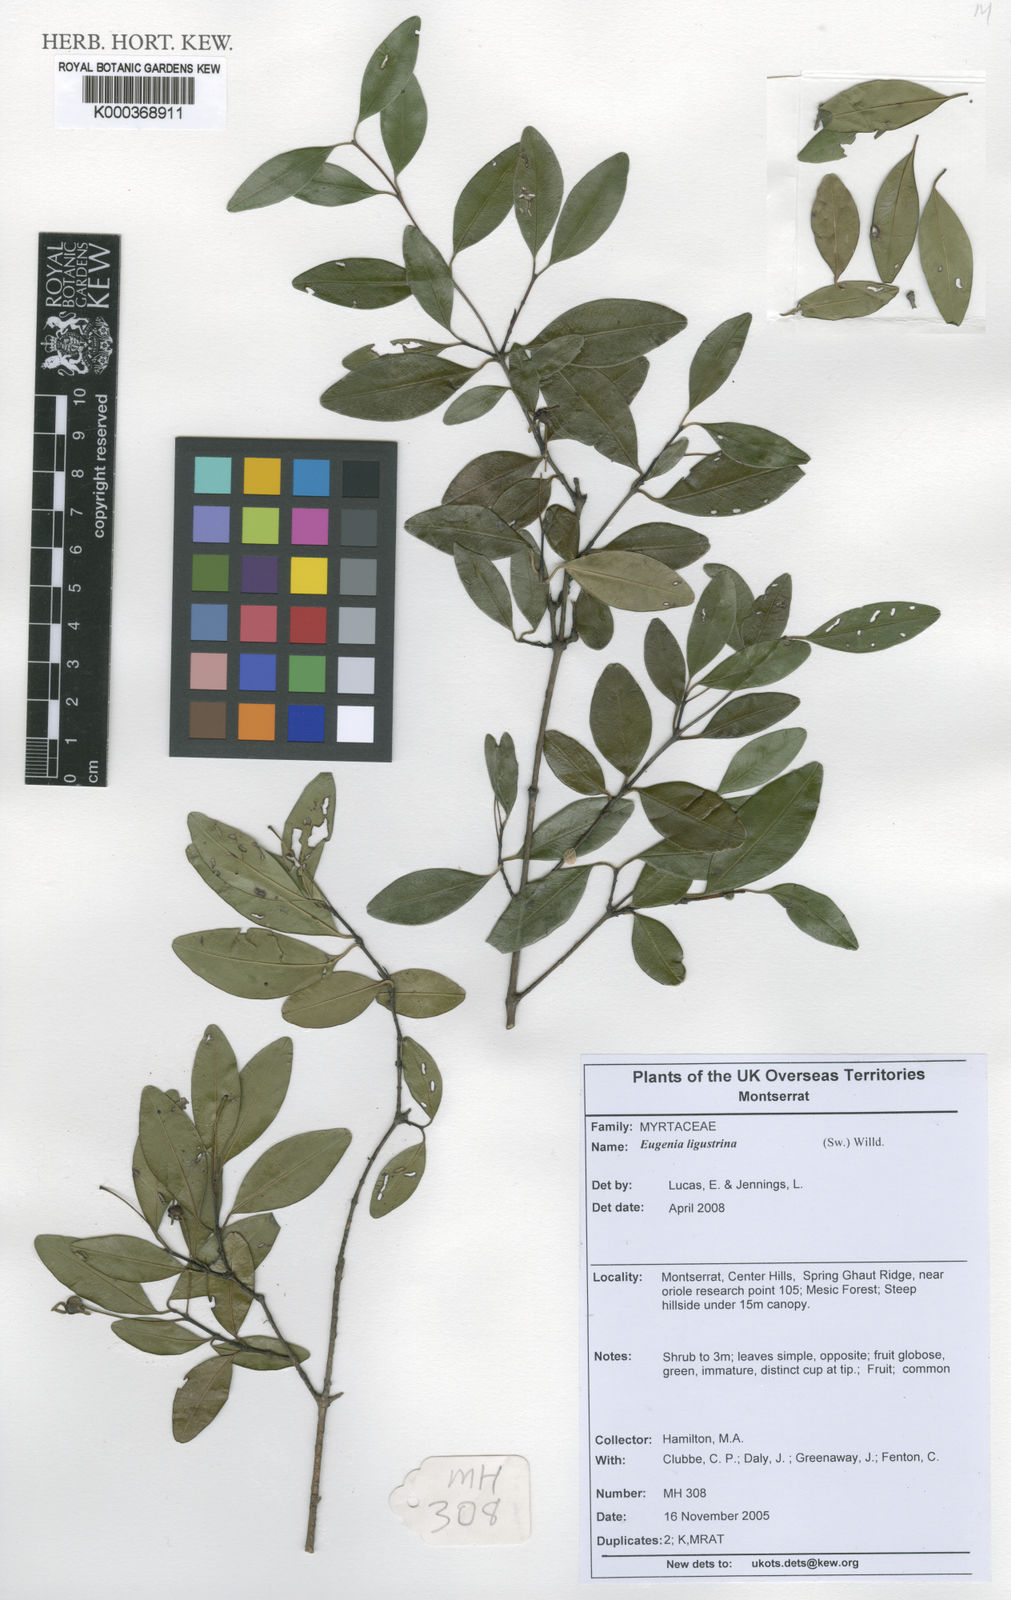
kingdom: Plantae
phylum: Tracheophyta
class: Magnoliopsida
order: Myrtales
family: Myrtaceae
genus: Eugenia
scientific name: Eugenia ligustrina
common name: Privet stopper
